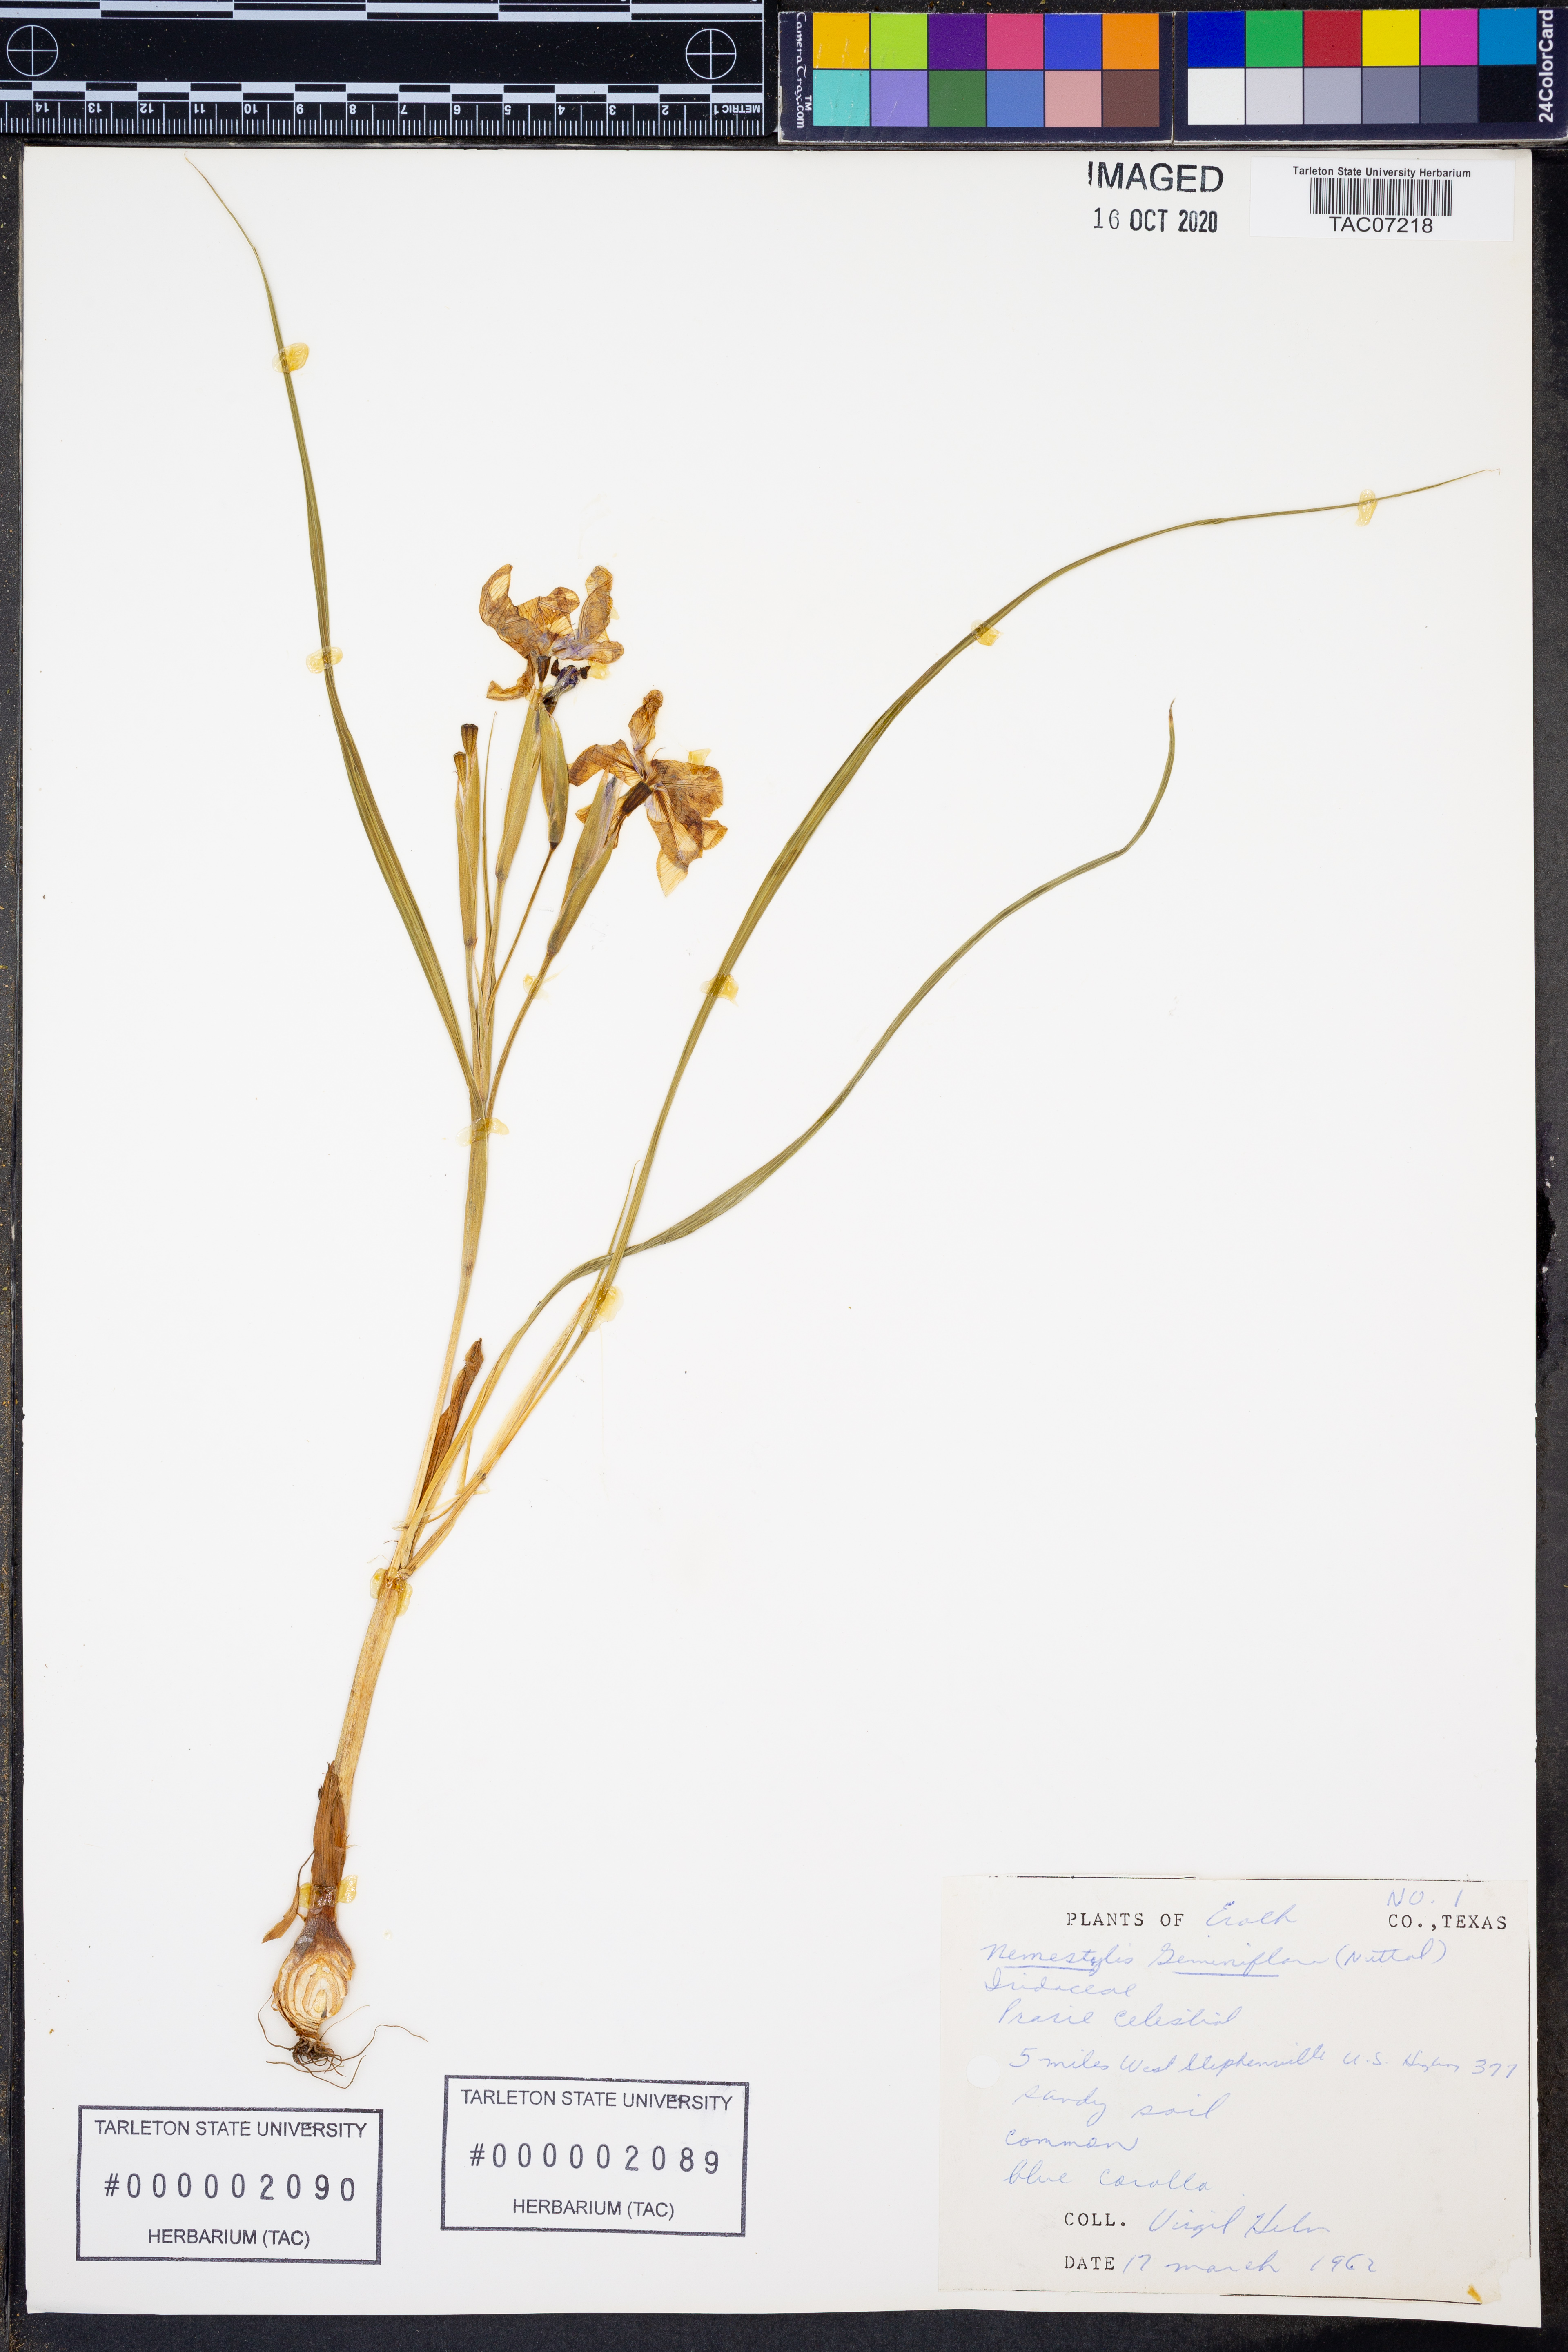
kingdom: Plantae
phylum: Tracheophyta
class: Liliopsida
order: Asparagales
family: Iridaceae
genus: Nemastylis
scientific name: Nemastylis geminiflora
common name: Prairie celestial
